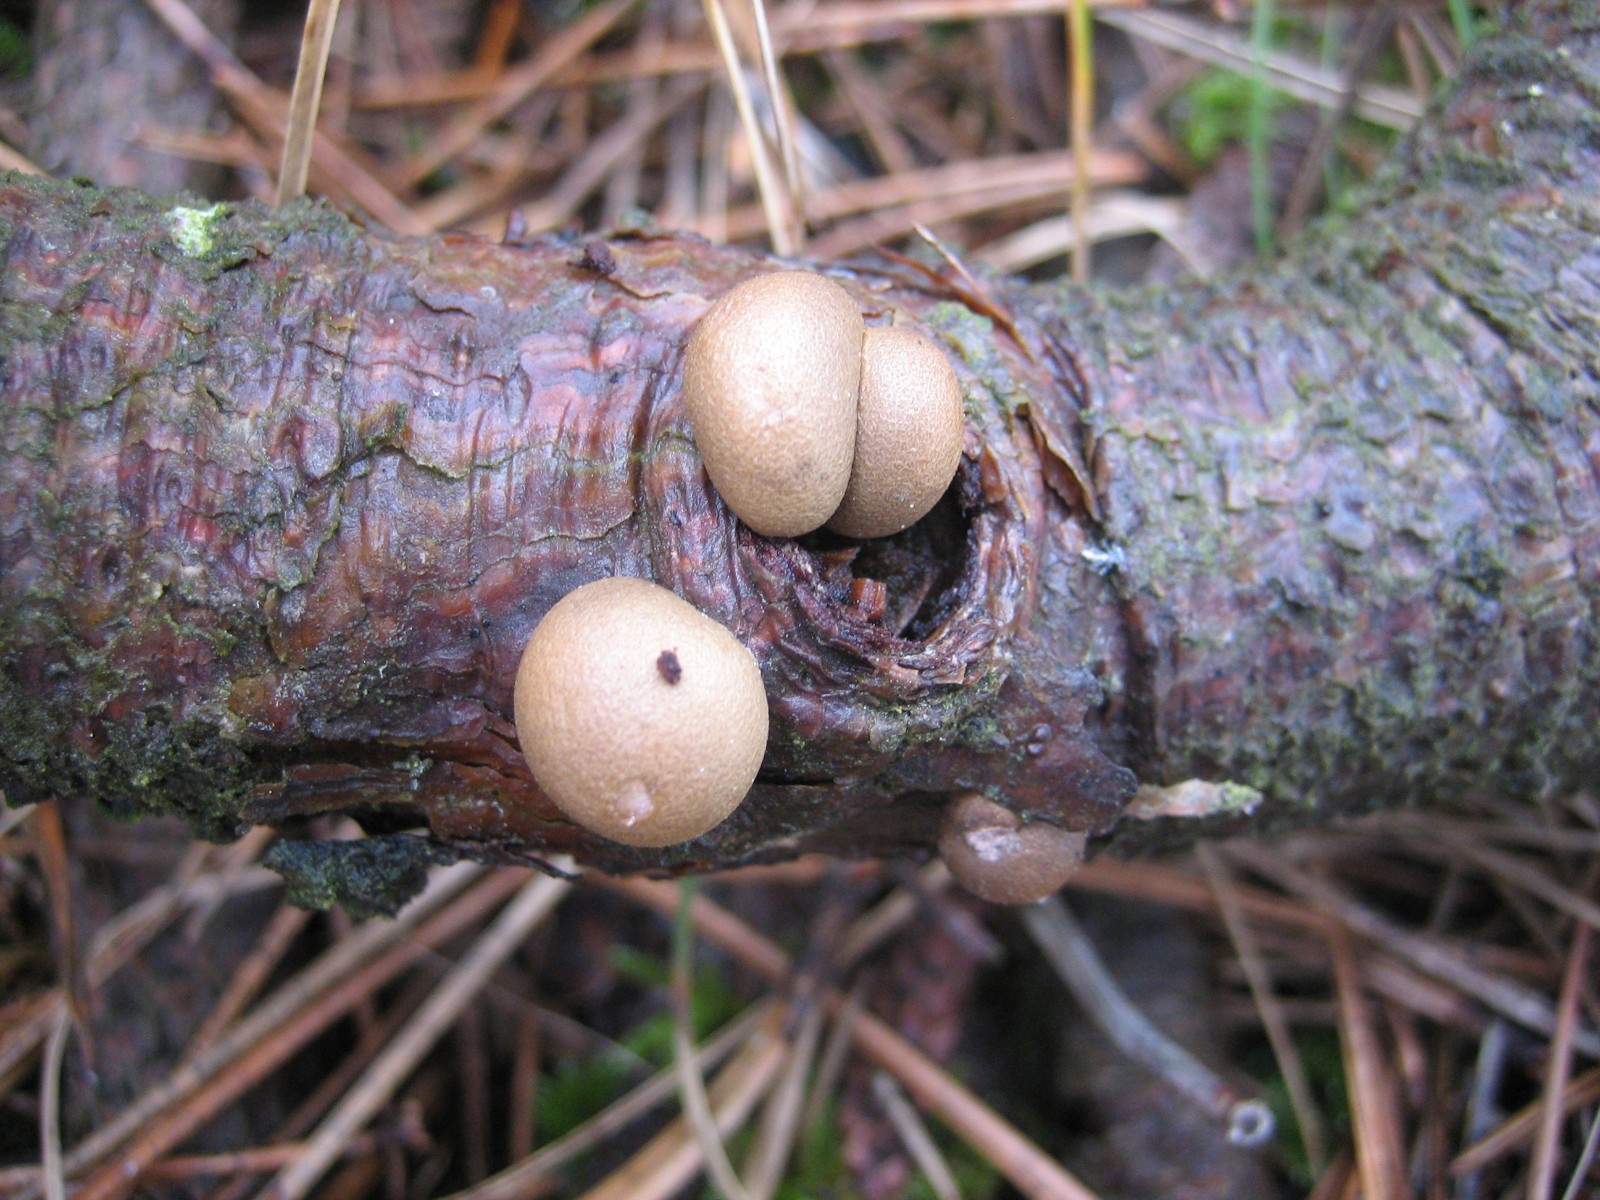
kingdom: Protozoa
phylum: Mycetozoa
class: Myxomycetes
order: Cribrariales
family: Tubiferaceae
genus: Lycogala
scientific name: Lycogala epidendrum
